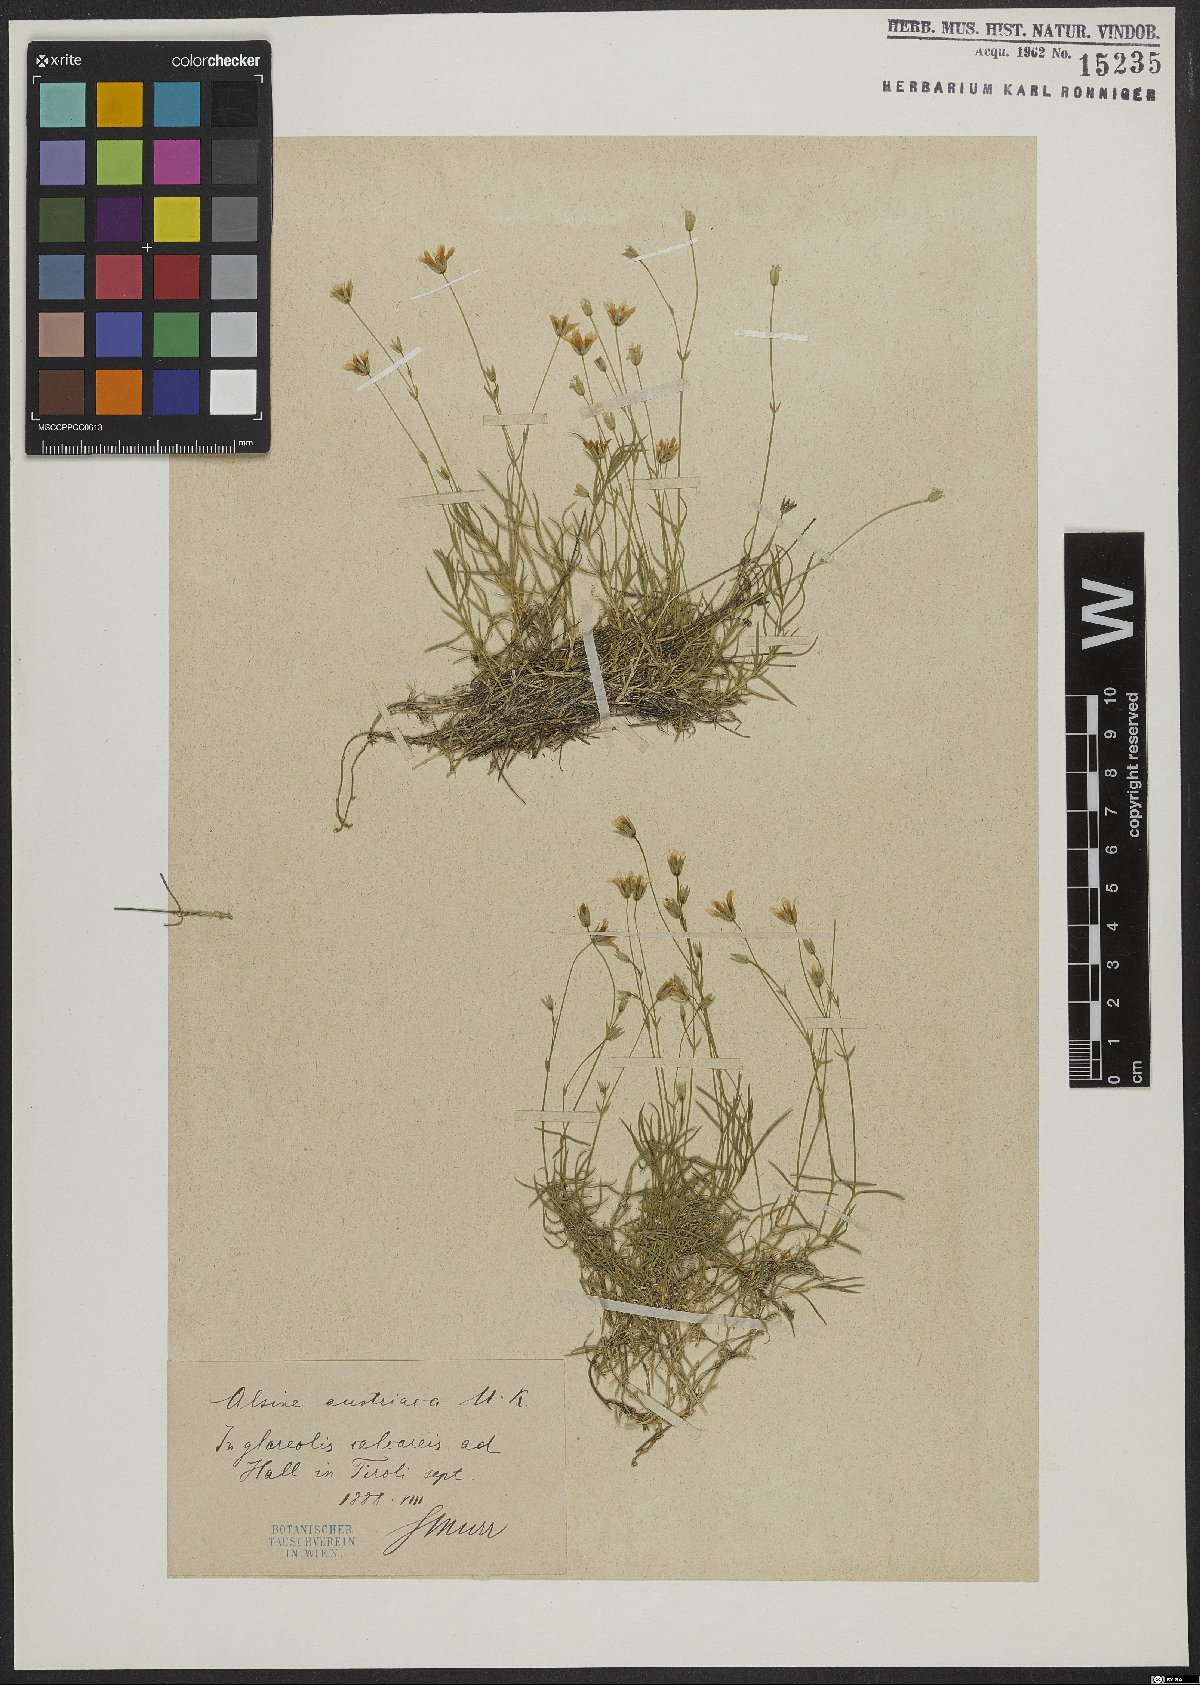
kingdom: Plantae
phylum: Tracheophyta
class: Magnoliopsida
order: Caryophyllales
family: Caryophyllaceae
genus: Sabulina
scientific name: Sabulina austriaca
